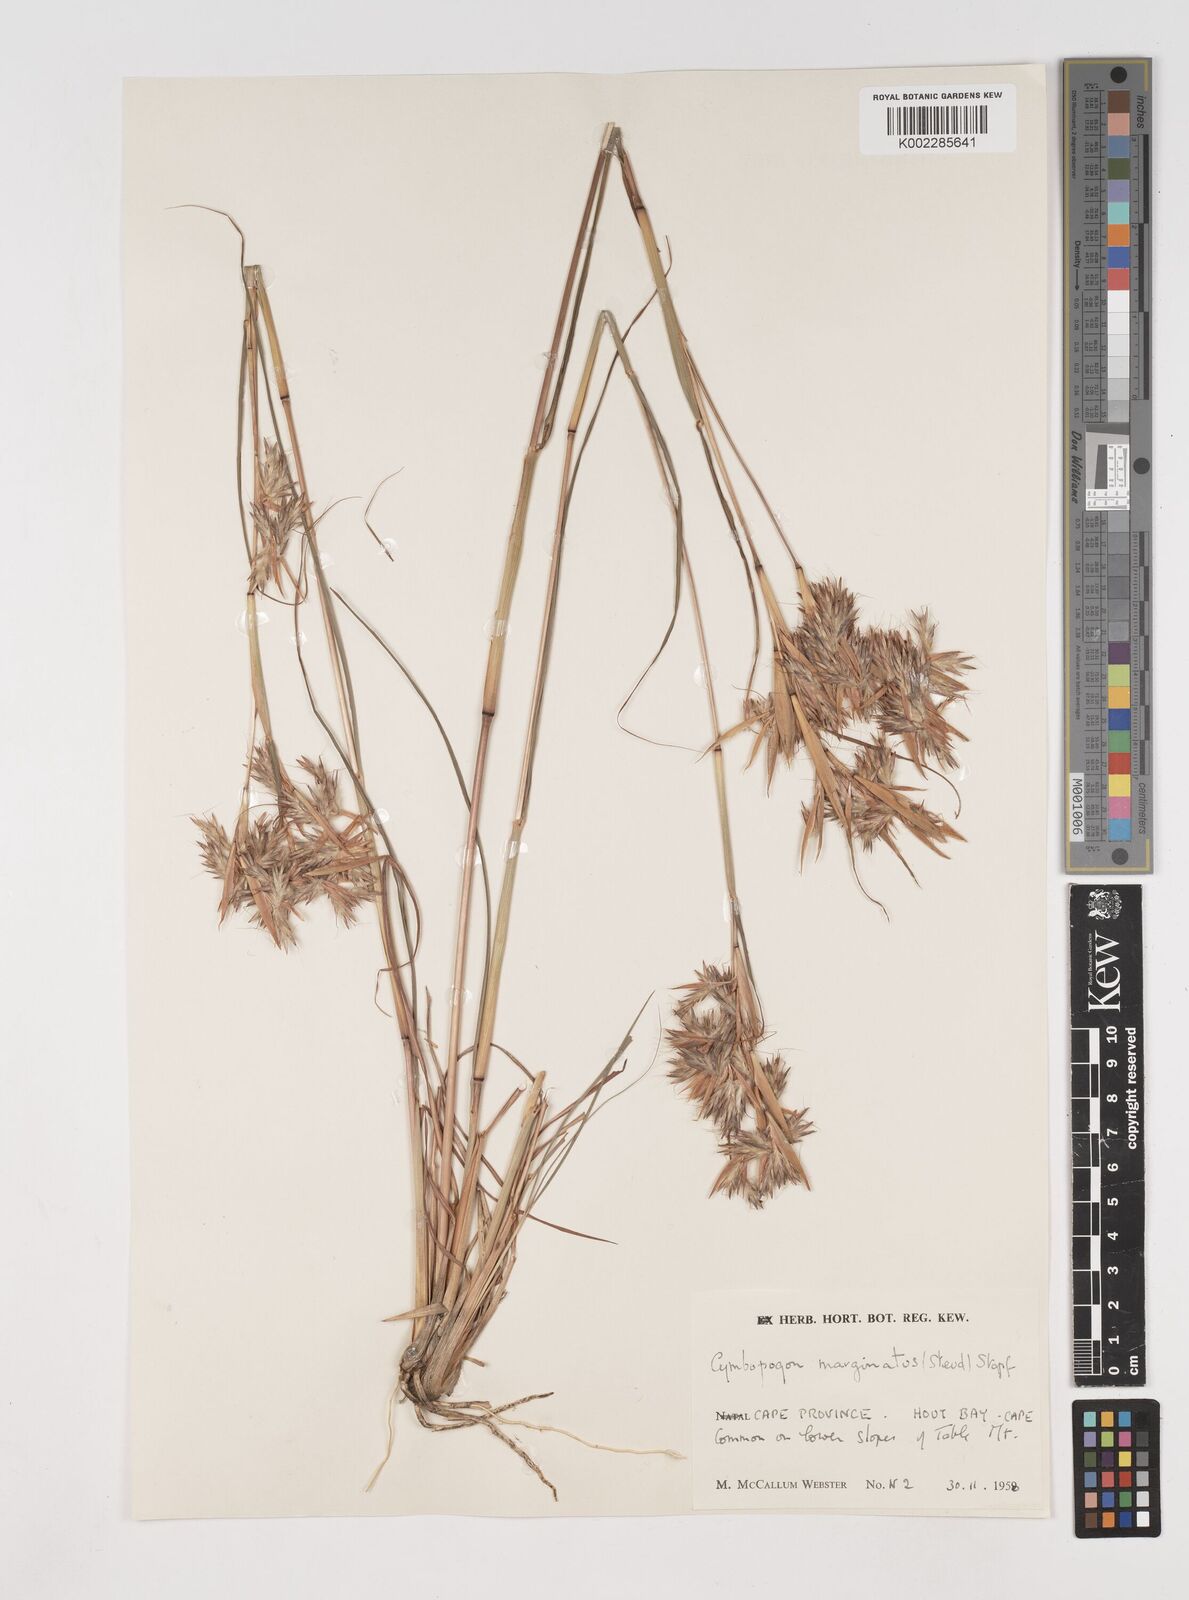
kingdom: Plantae
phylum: Tracheophyta
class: Liliopsida
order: Poales
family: Poaceae
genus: Cymbopogon
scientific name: Cymbopogon marginatus
